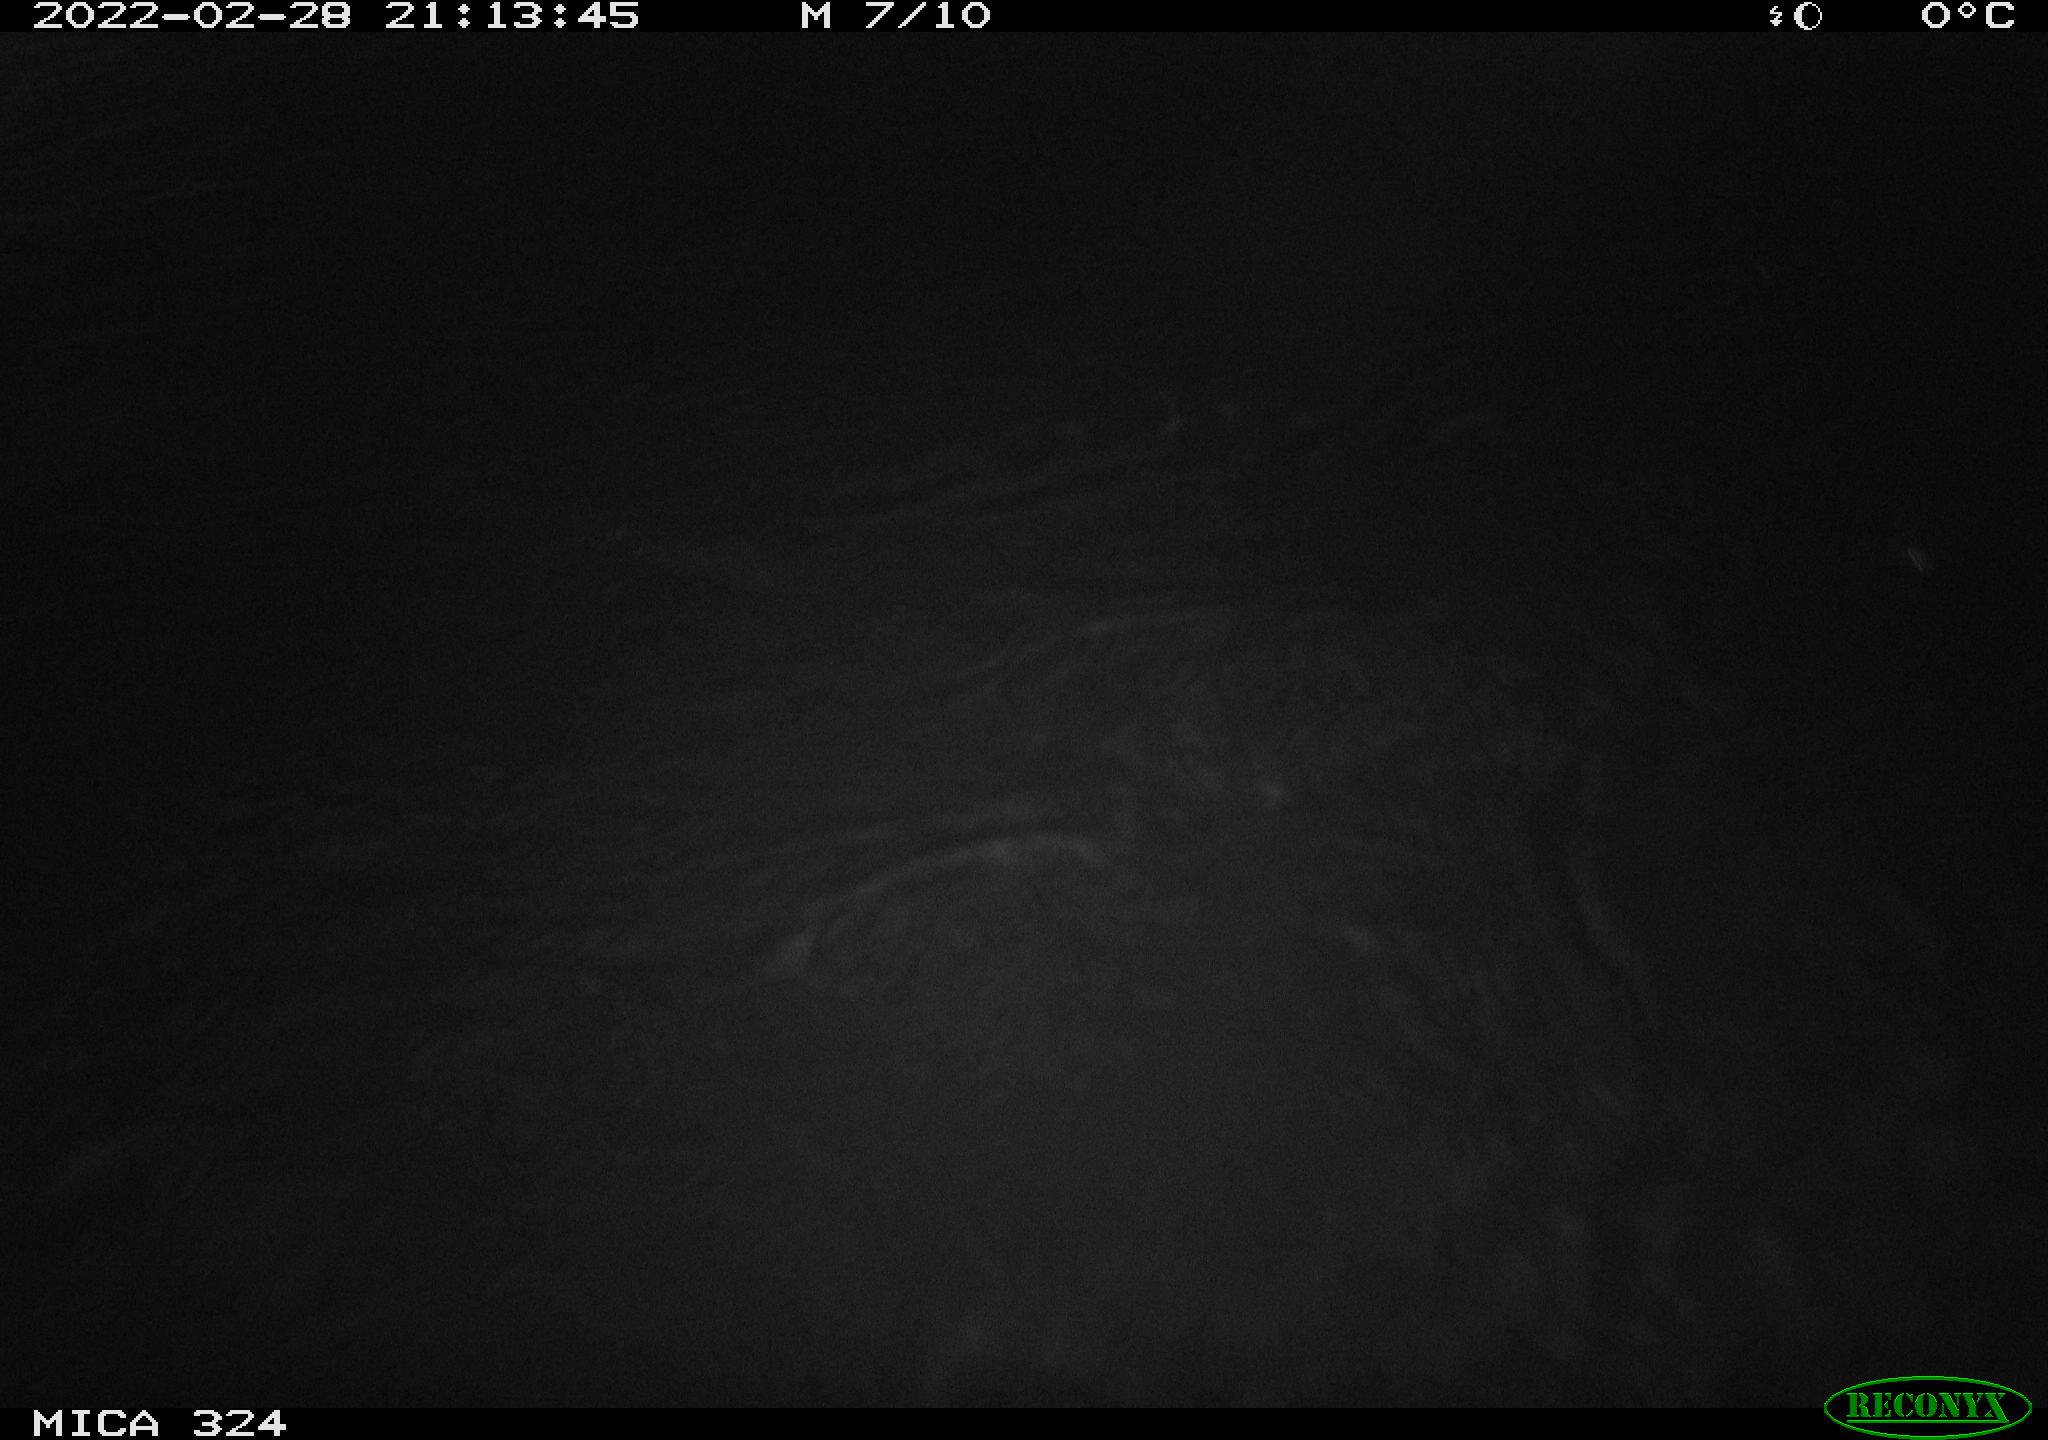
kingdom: Animalia
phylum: Chordata
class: Mammalia
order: Rodentia
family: Cricetidae
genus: Ondatra
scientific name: Ondatra zibethicus
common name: Muskrat
